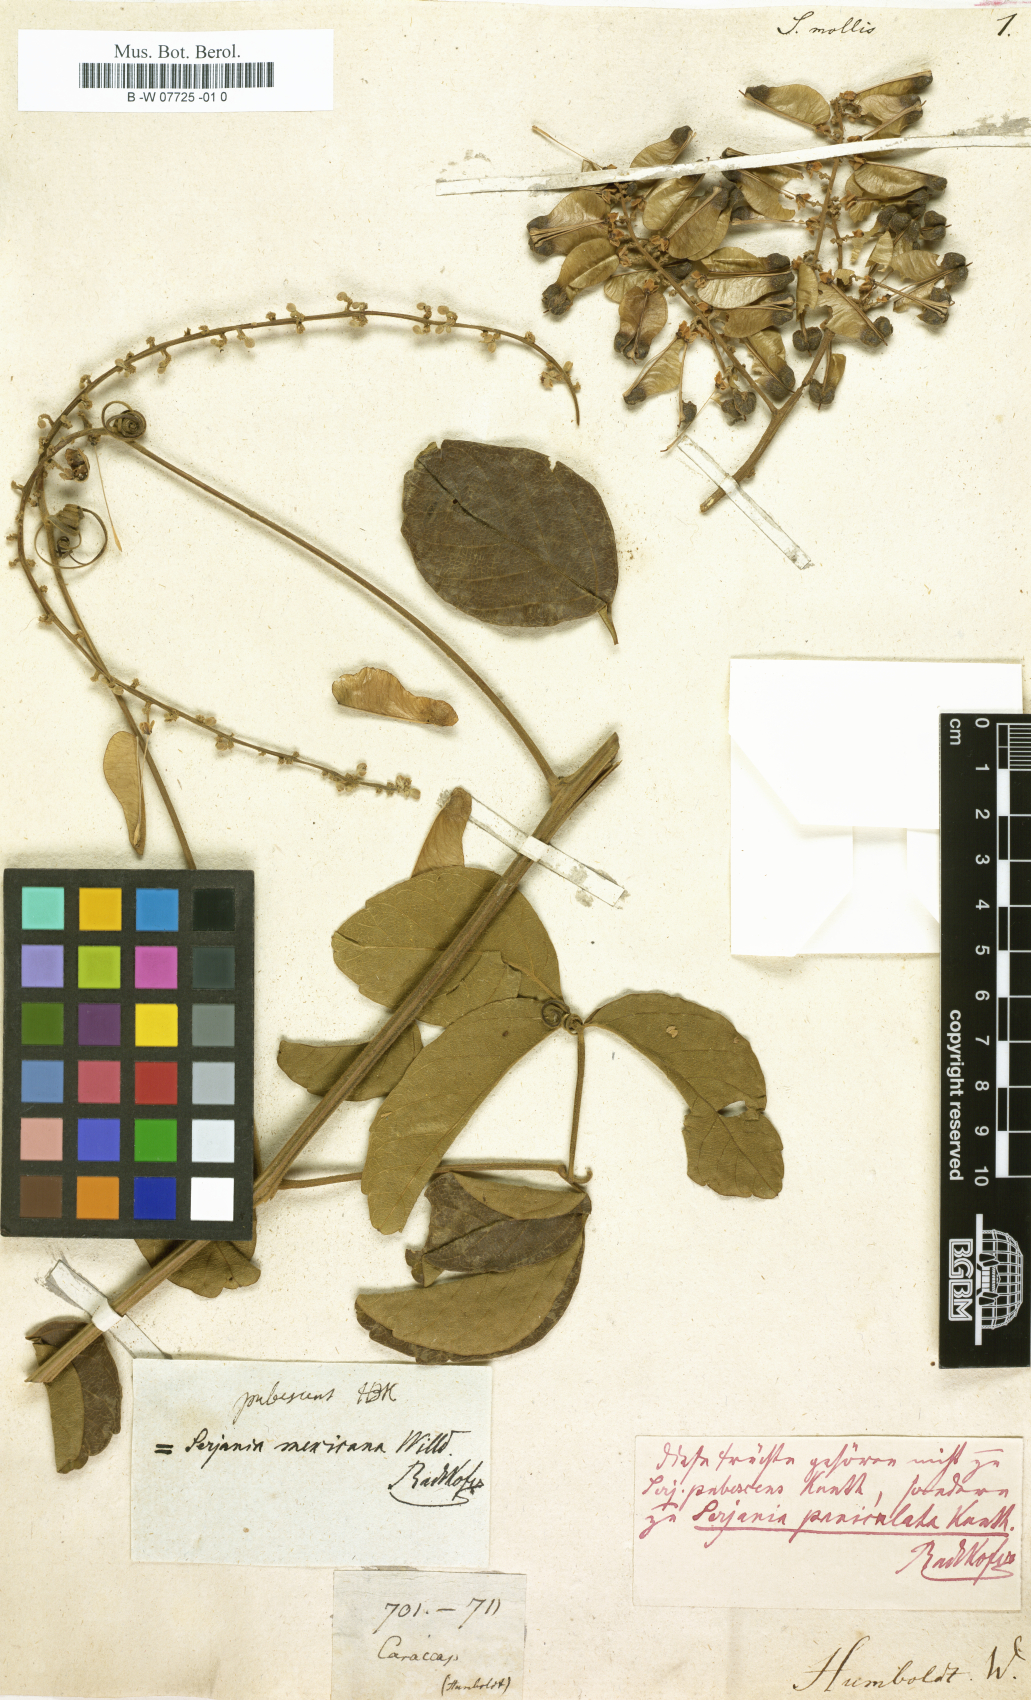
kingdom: Plantae
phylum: Tracheophyta
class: Magnoliopsida
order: Sapindales
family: Sapindaceae
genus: Serjania
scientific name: Serjania mollis
